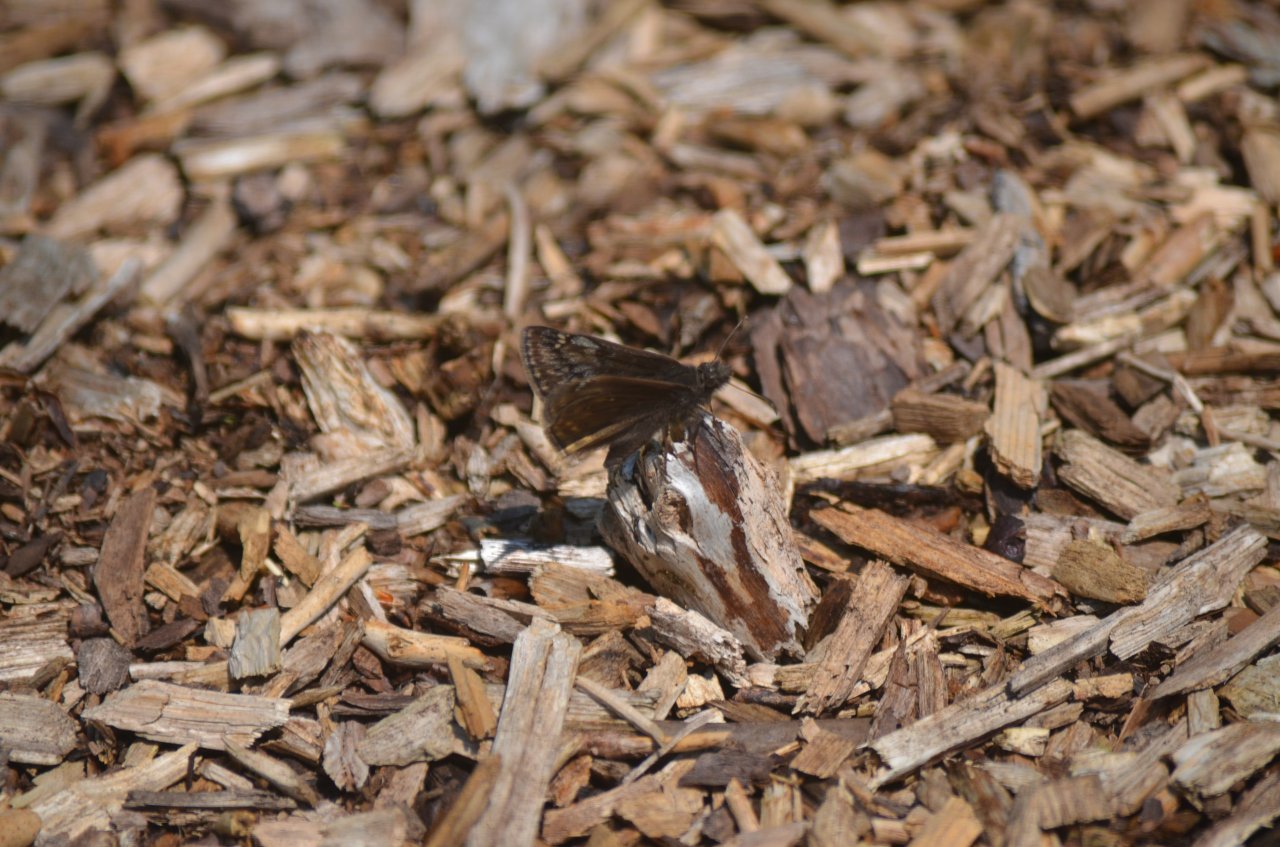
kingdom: Animalia
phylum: Arthropoda
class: Insecta
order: Lepidoptera
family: Hesperiidae
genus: Erynnis
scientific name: Erynnis
